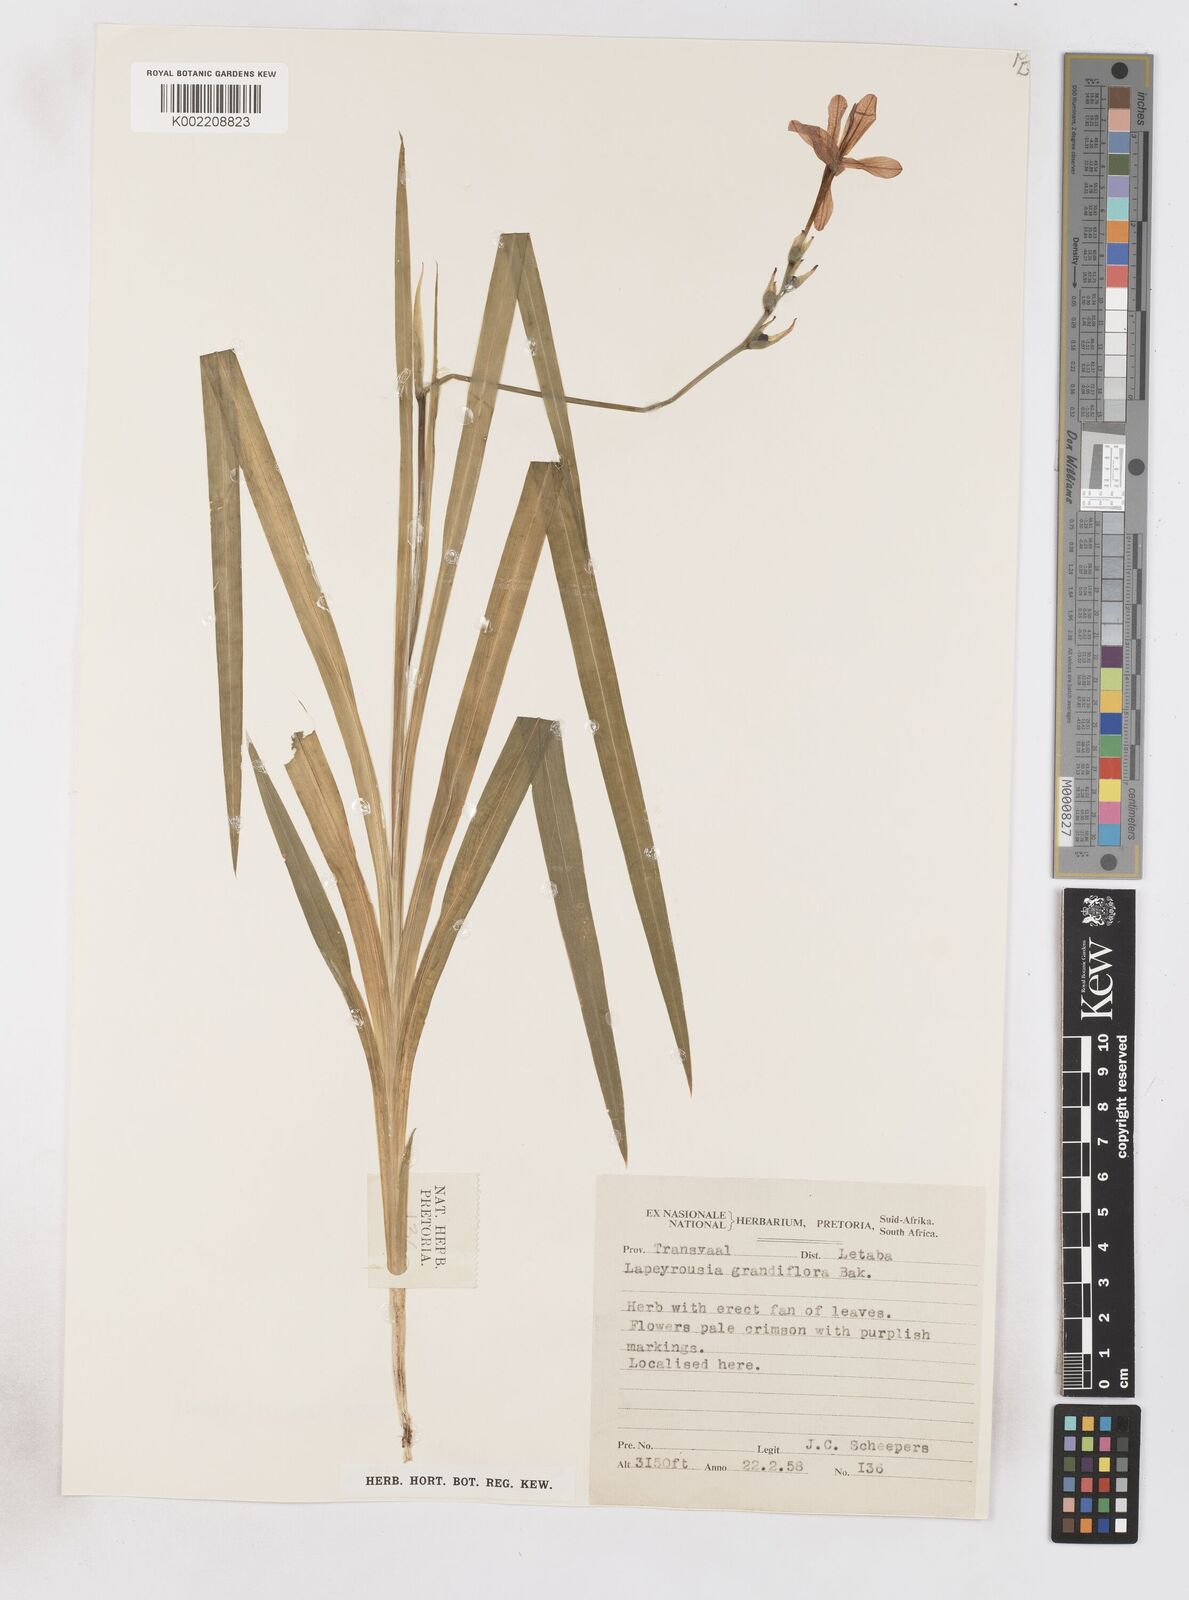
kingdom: Plantae
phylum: Tracheophyta
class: Liliopsida
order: Asparagales
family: Iridaceae
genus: Freesia
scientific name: Freesia grandiflora
